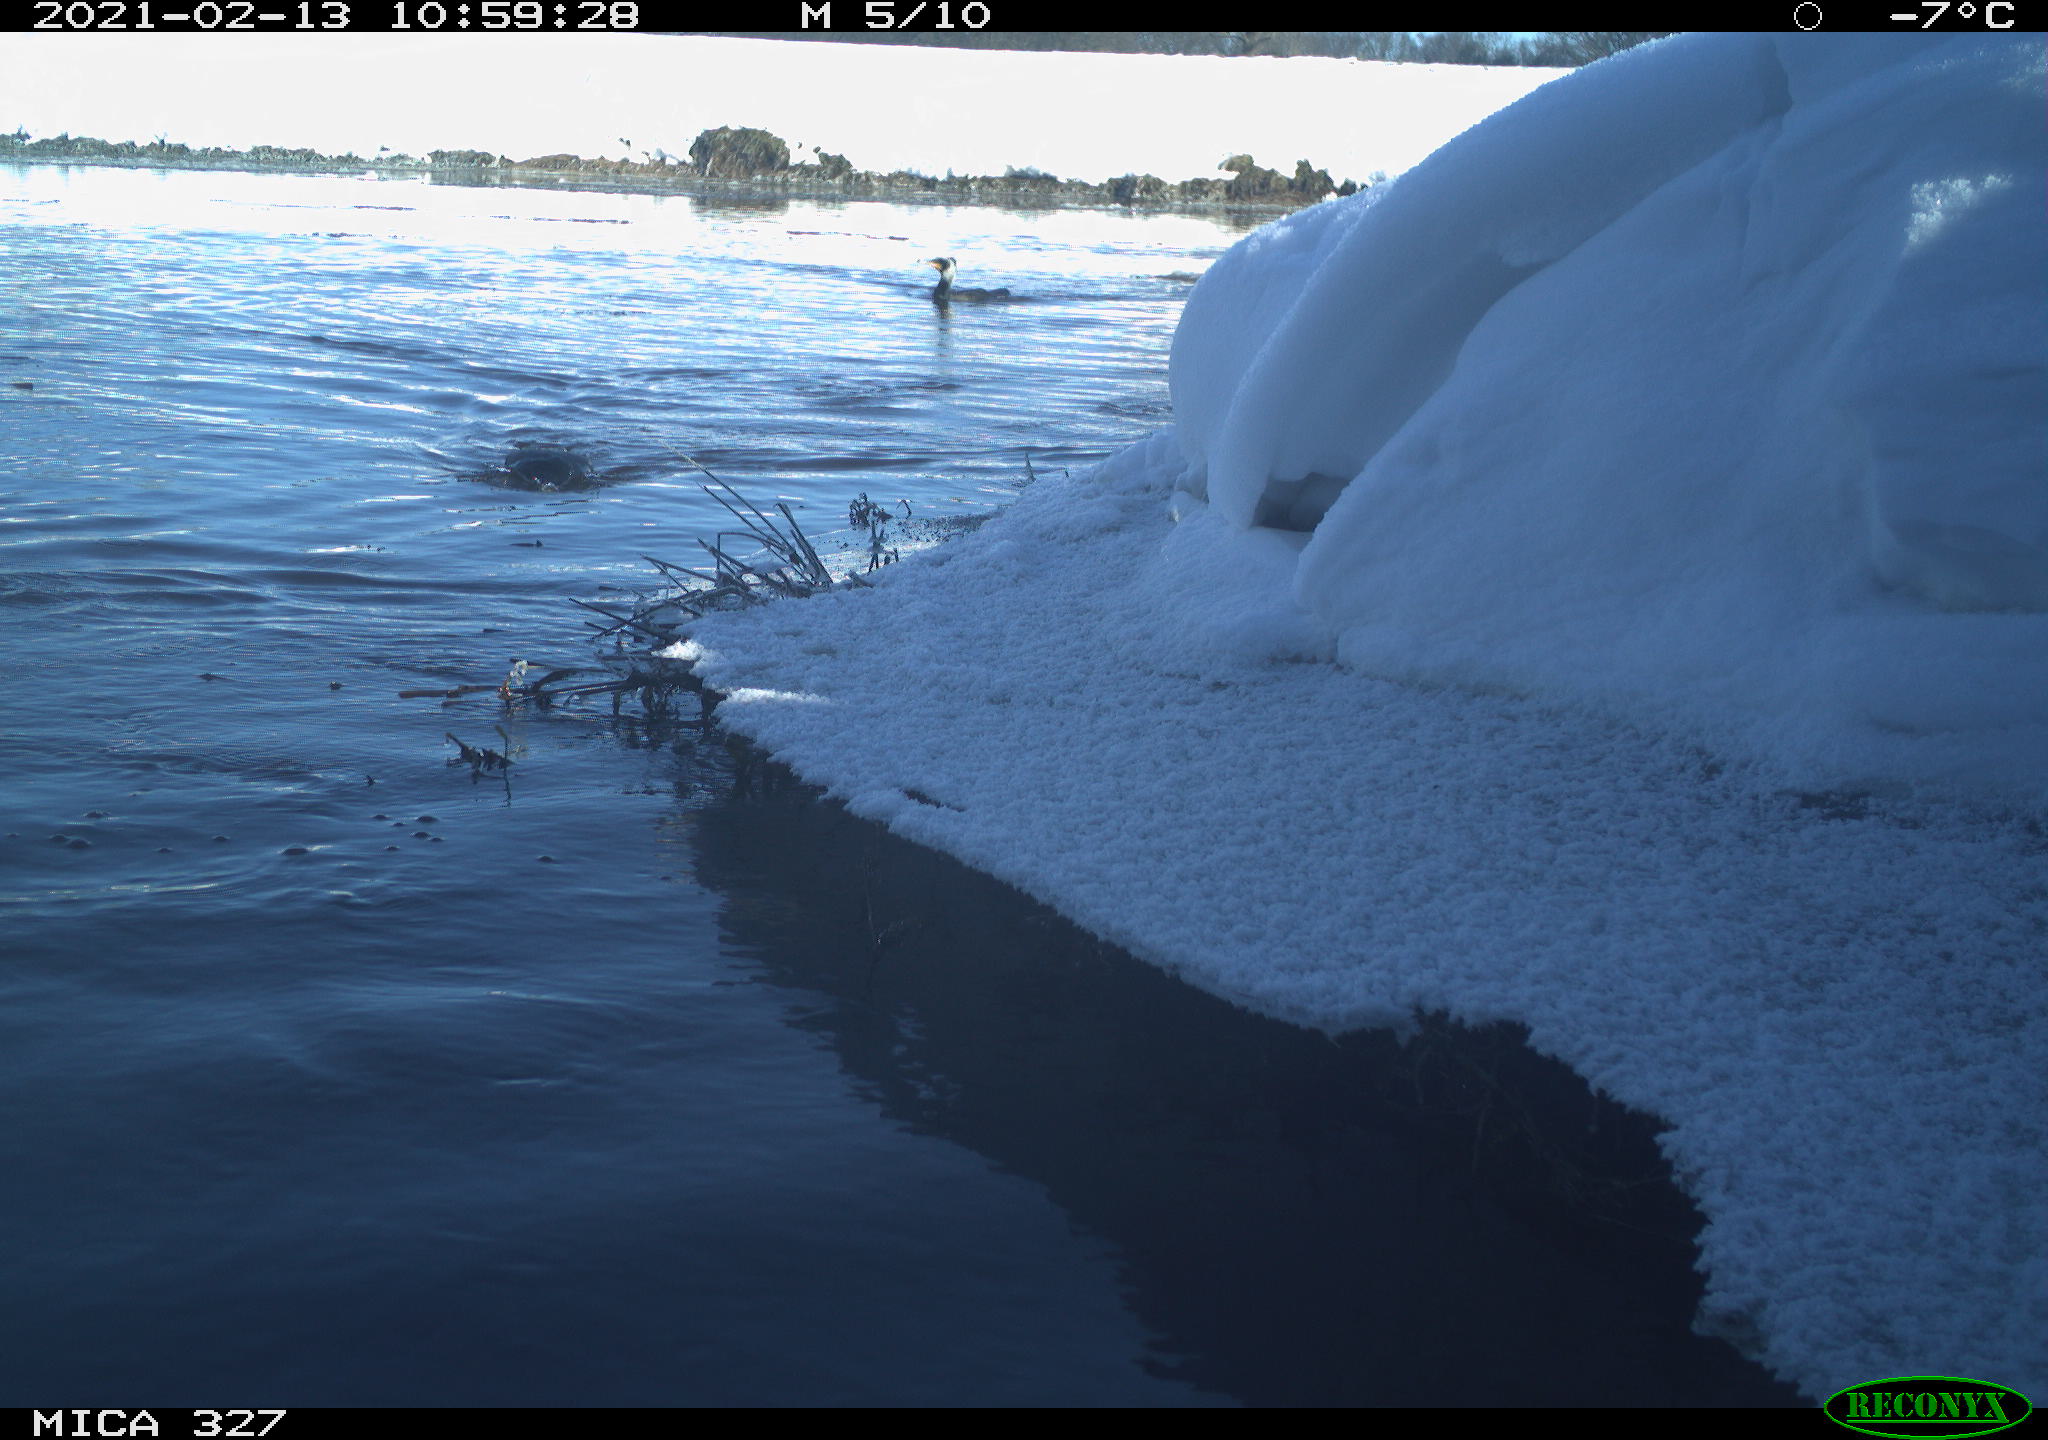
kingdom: Animalia
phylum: Chordata
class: Aves
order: Gruiformes
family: Rallidae
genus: Fulica
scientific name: Fulica atra
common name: Eurasian coot
